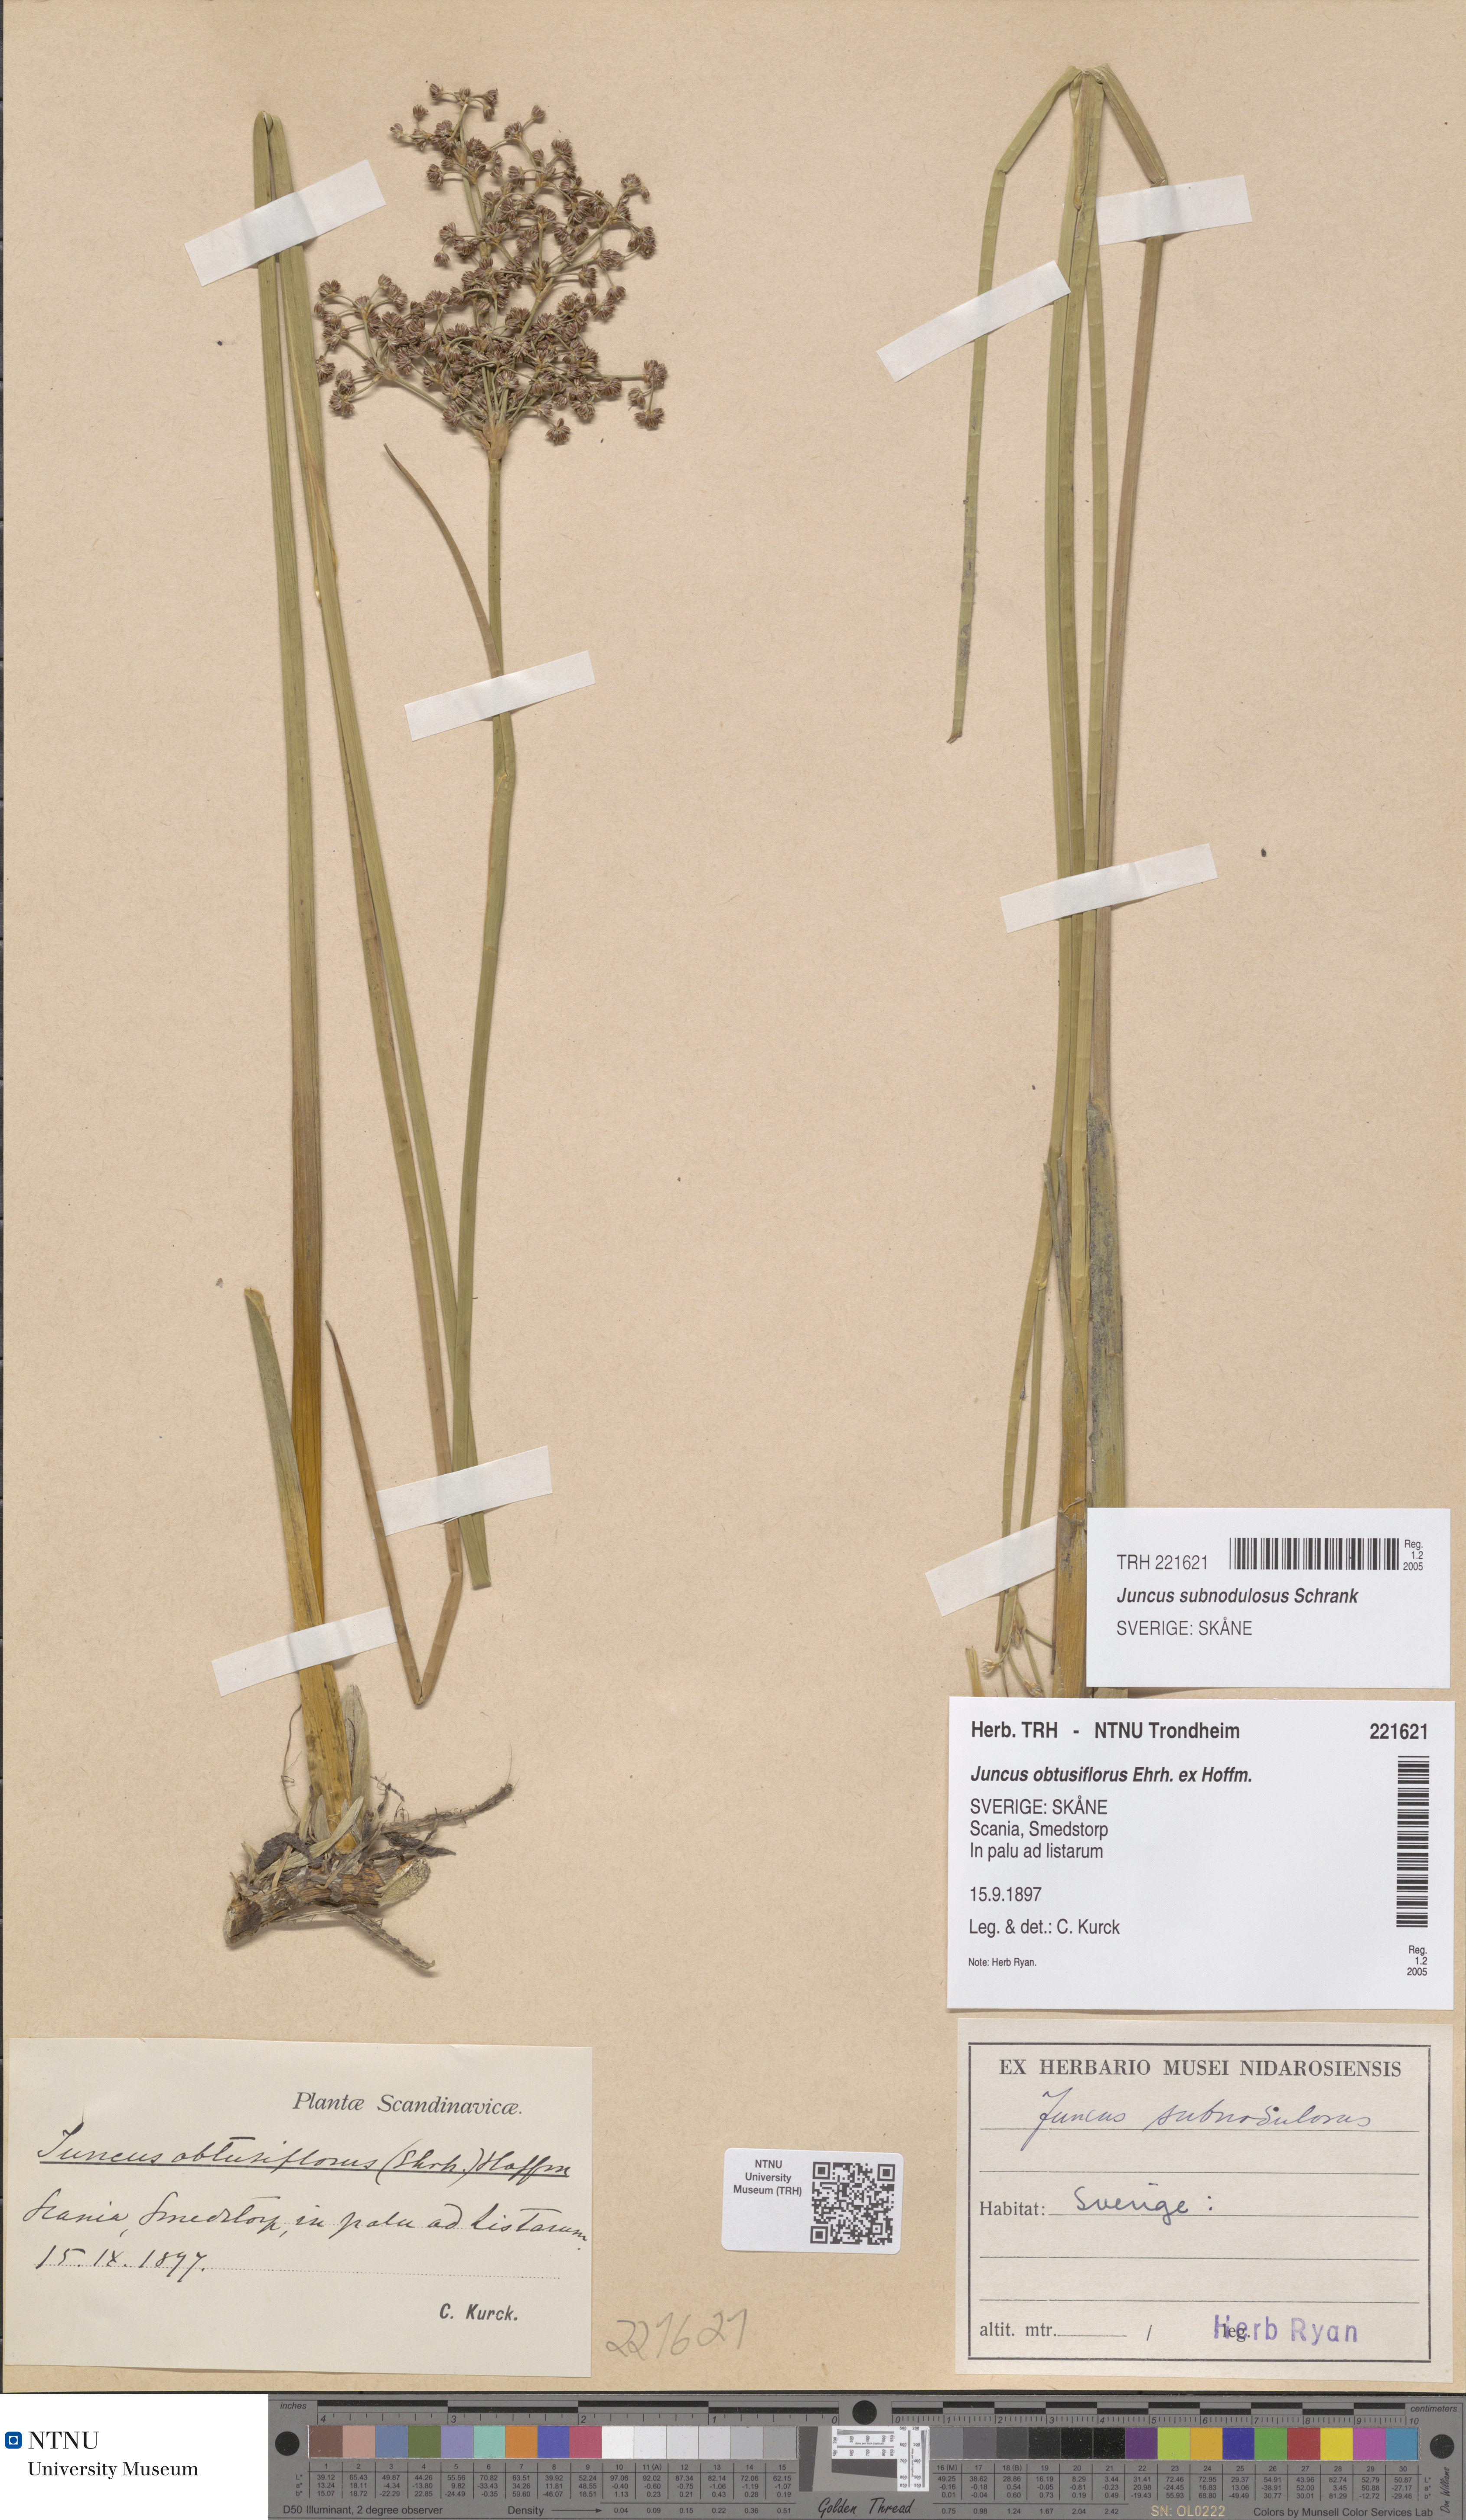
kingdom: Plantae
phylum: Tracheophyta
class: Liliopsida
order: Poales
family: Juncaceae
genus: Juncus
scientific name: Juncus subnodulosus
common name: Blunt-flowered rush
